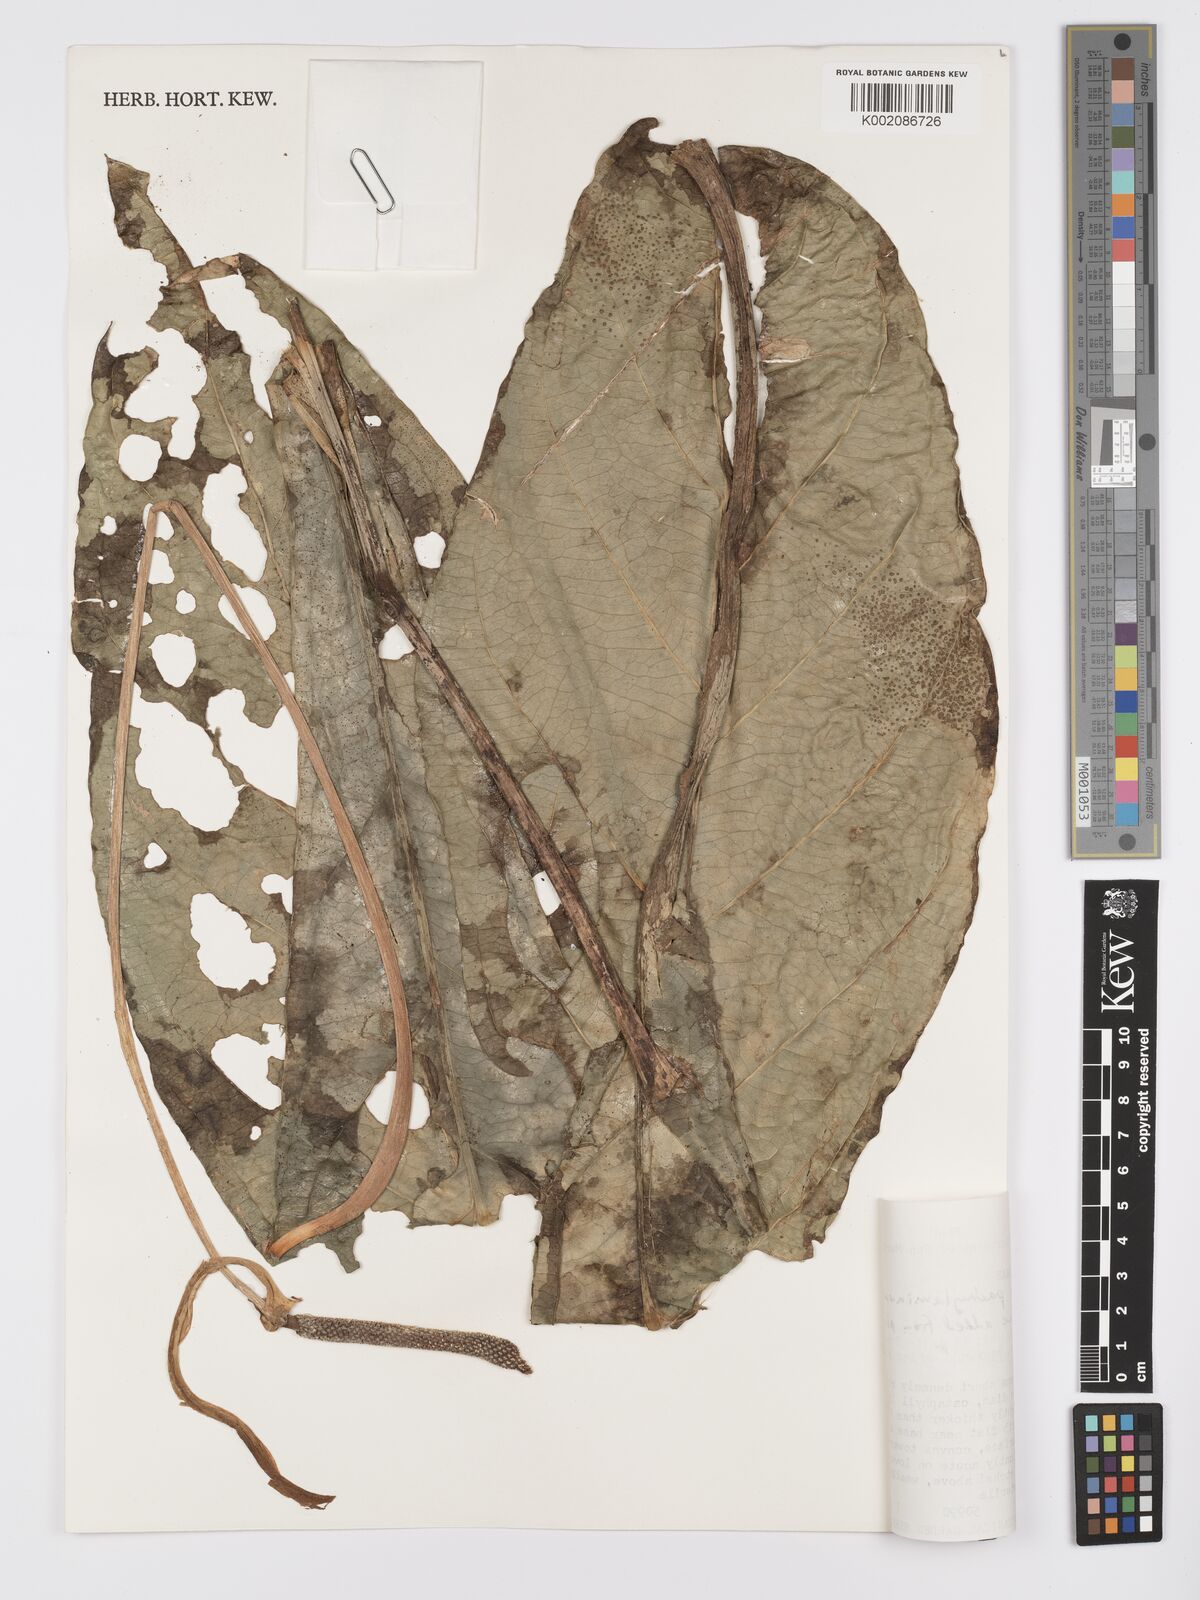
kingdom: Plantae
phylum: Tracheophyta
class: Liliopsida
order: Alismatales
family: Araceae
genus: Anthurium
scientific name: Anthurium pachylaminum
